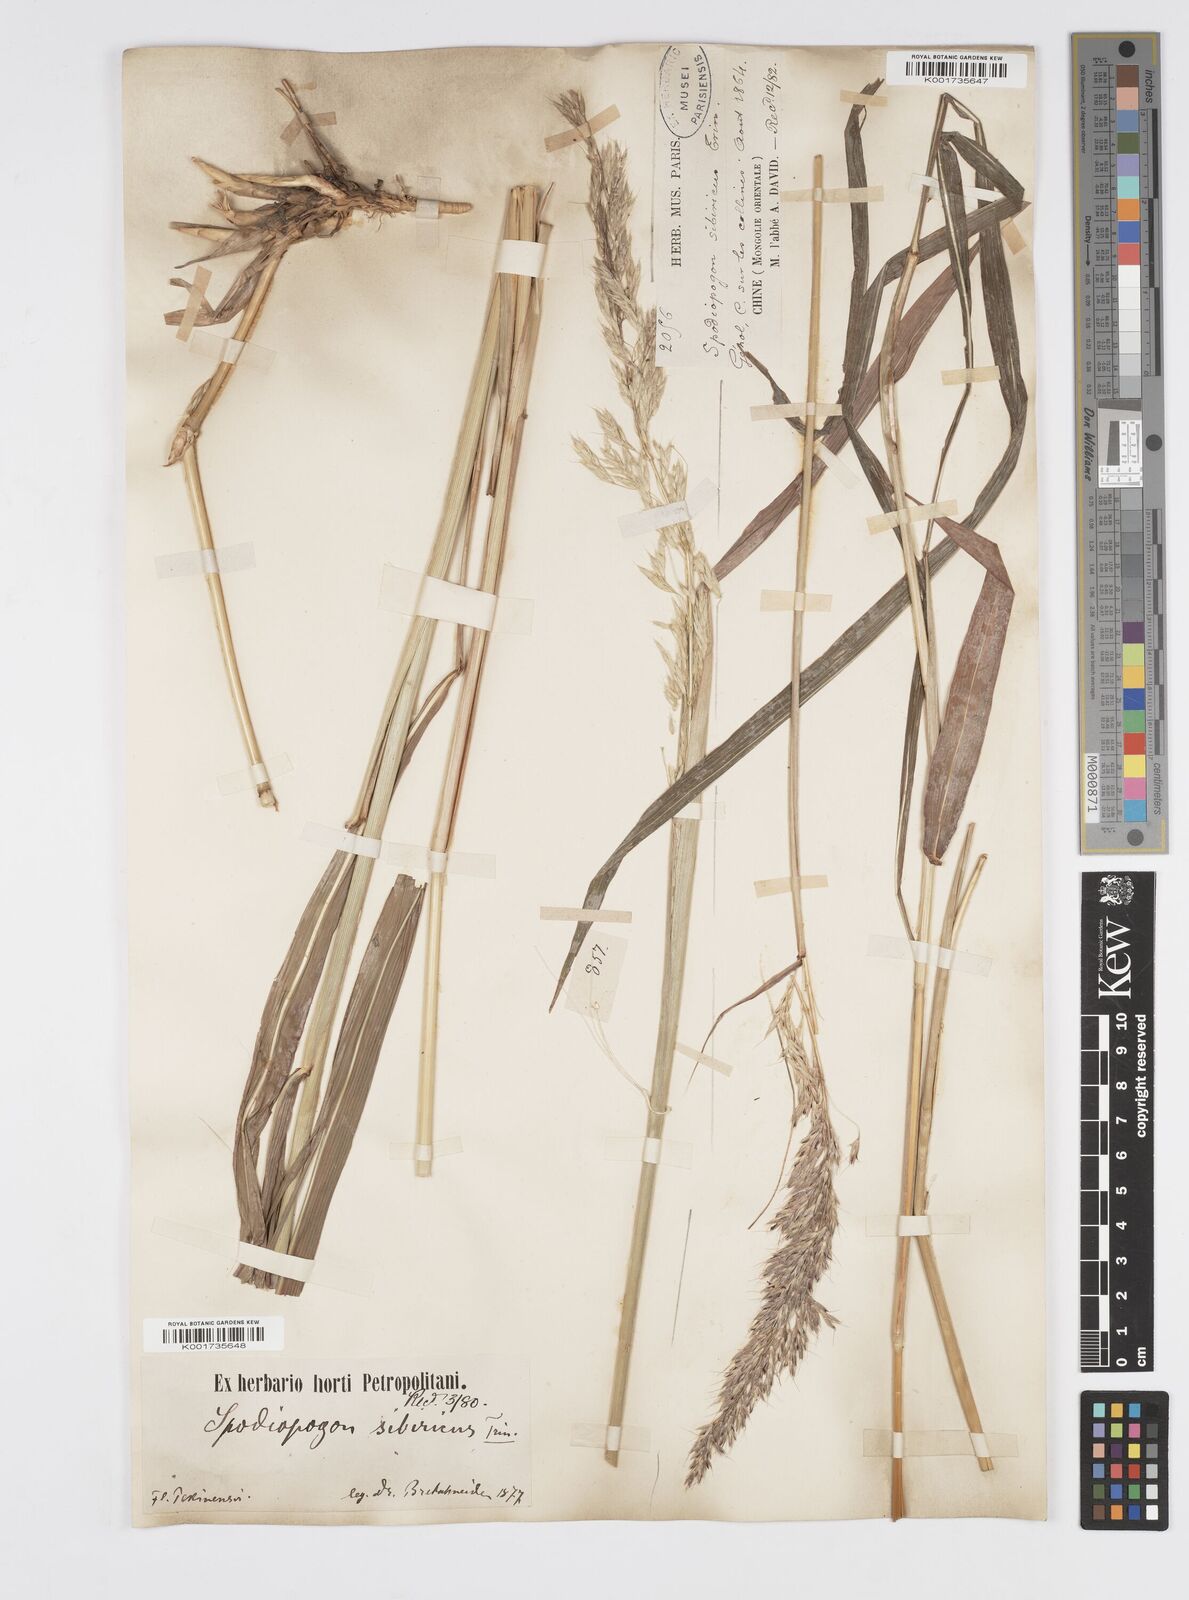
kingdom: Plantae
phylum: Tracheophyta
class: Liliopsida
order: Poales
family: Poaceae
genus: Spodiopogon
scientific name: Spodiopogon sibiricus
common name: Siberian graybeard
